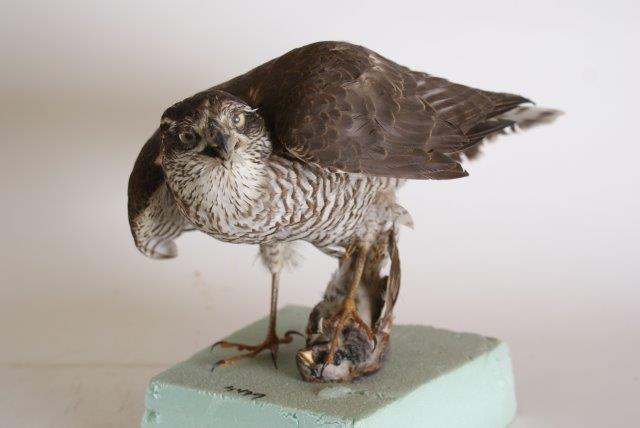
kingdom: Animalia
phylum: Chordata
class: Aves
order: Accipitriformes
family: Accipitridae
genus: Accipiter
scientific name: Accipiter nisus
